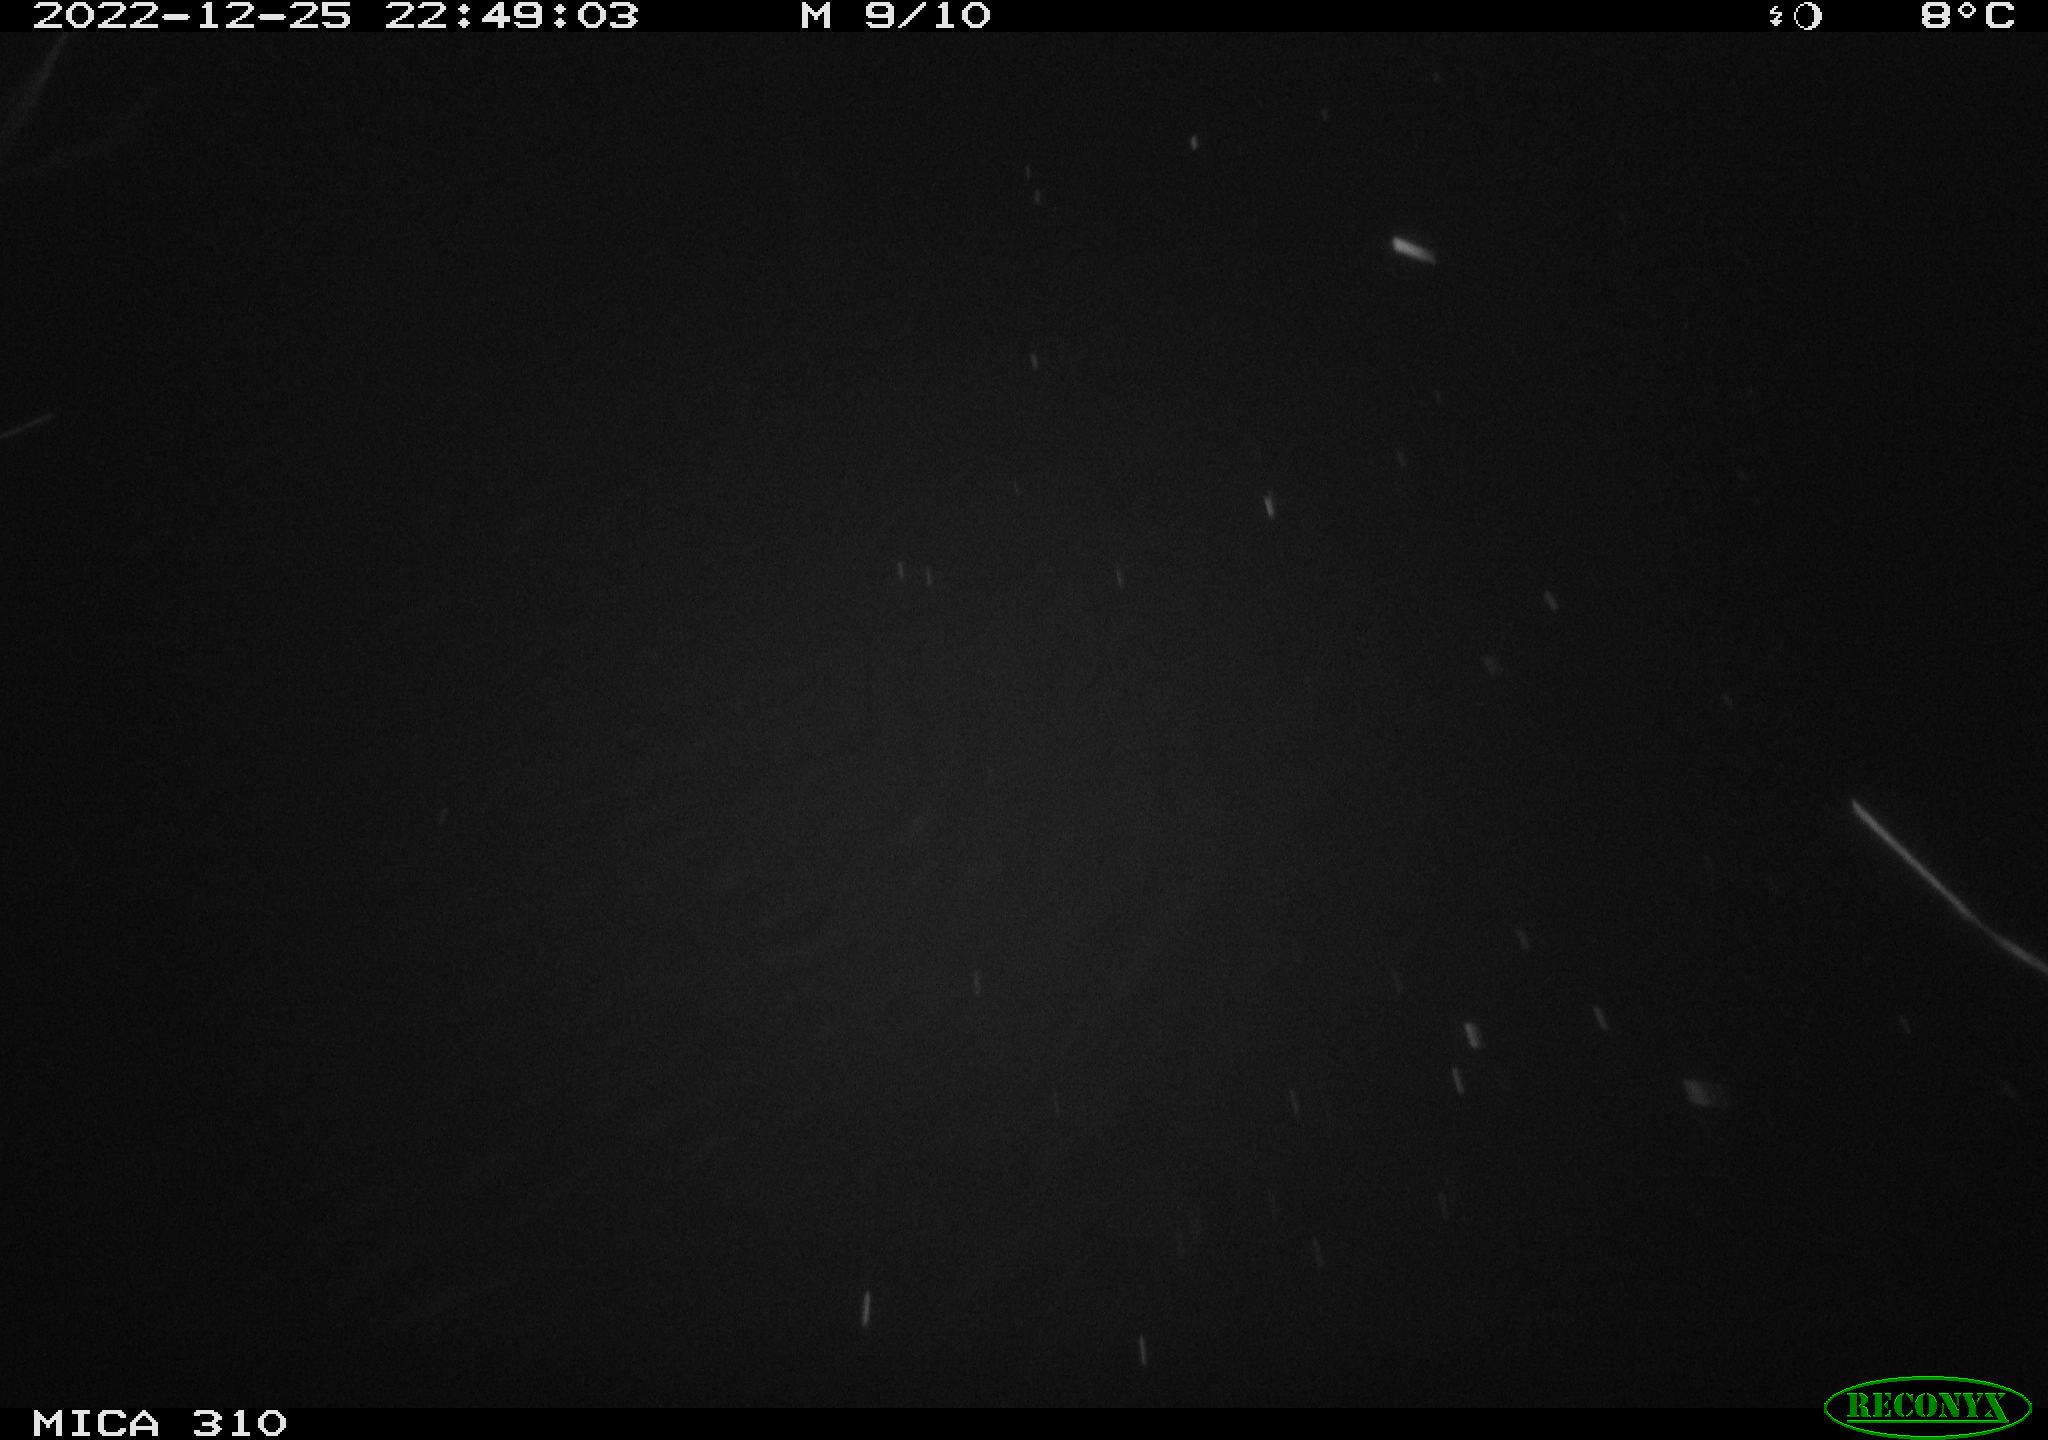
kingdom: Animalia
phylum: Chordata
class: Mammalia
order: Rodentia
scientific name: Rodentia
